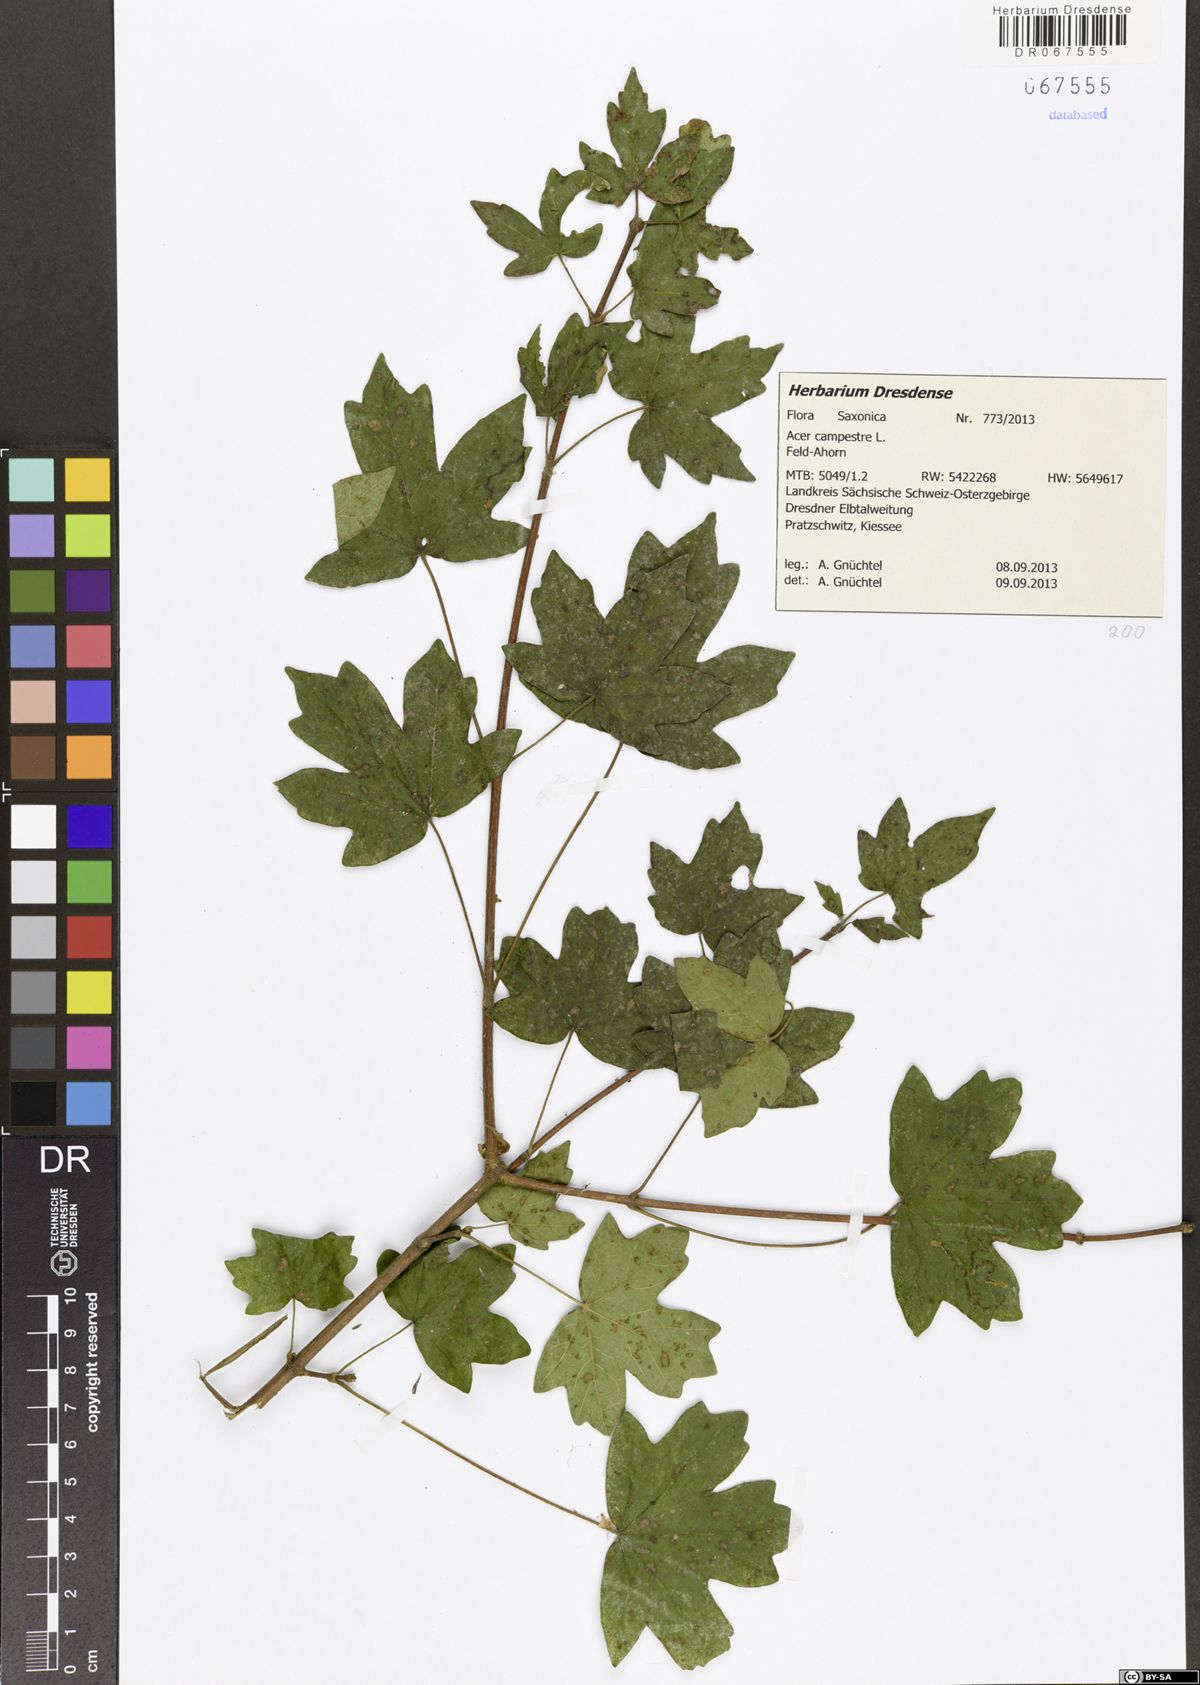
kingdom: Plantae
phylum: Tracheophyta
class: Magnoliopsida
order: Sapindales
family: Sapindaceae
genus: Acer
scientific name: Acer campestre
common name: Field maple
